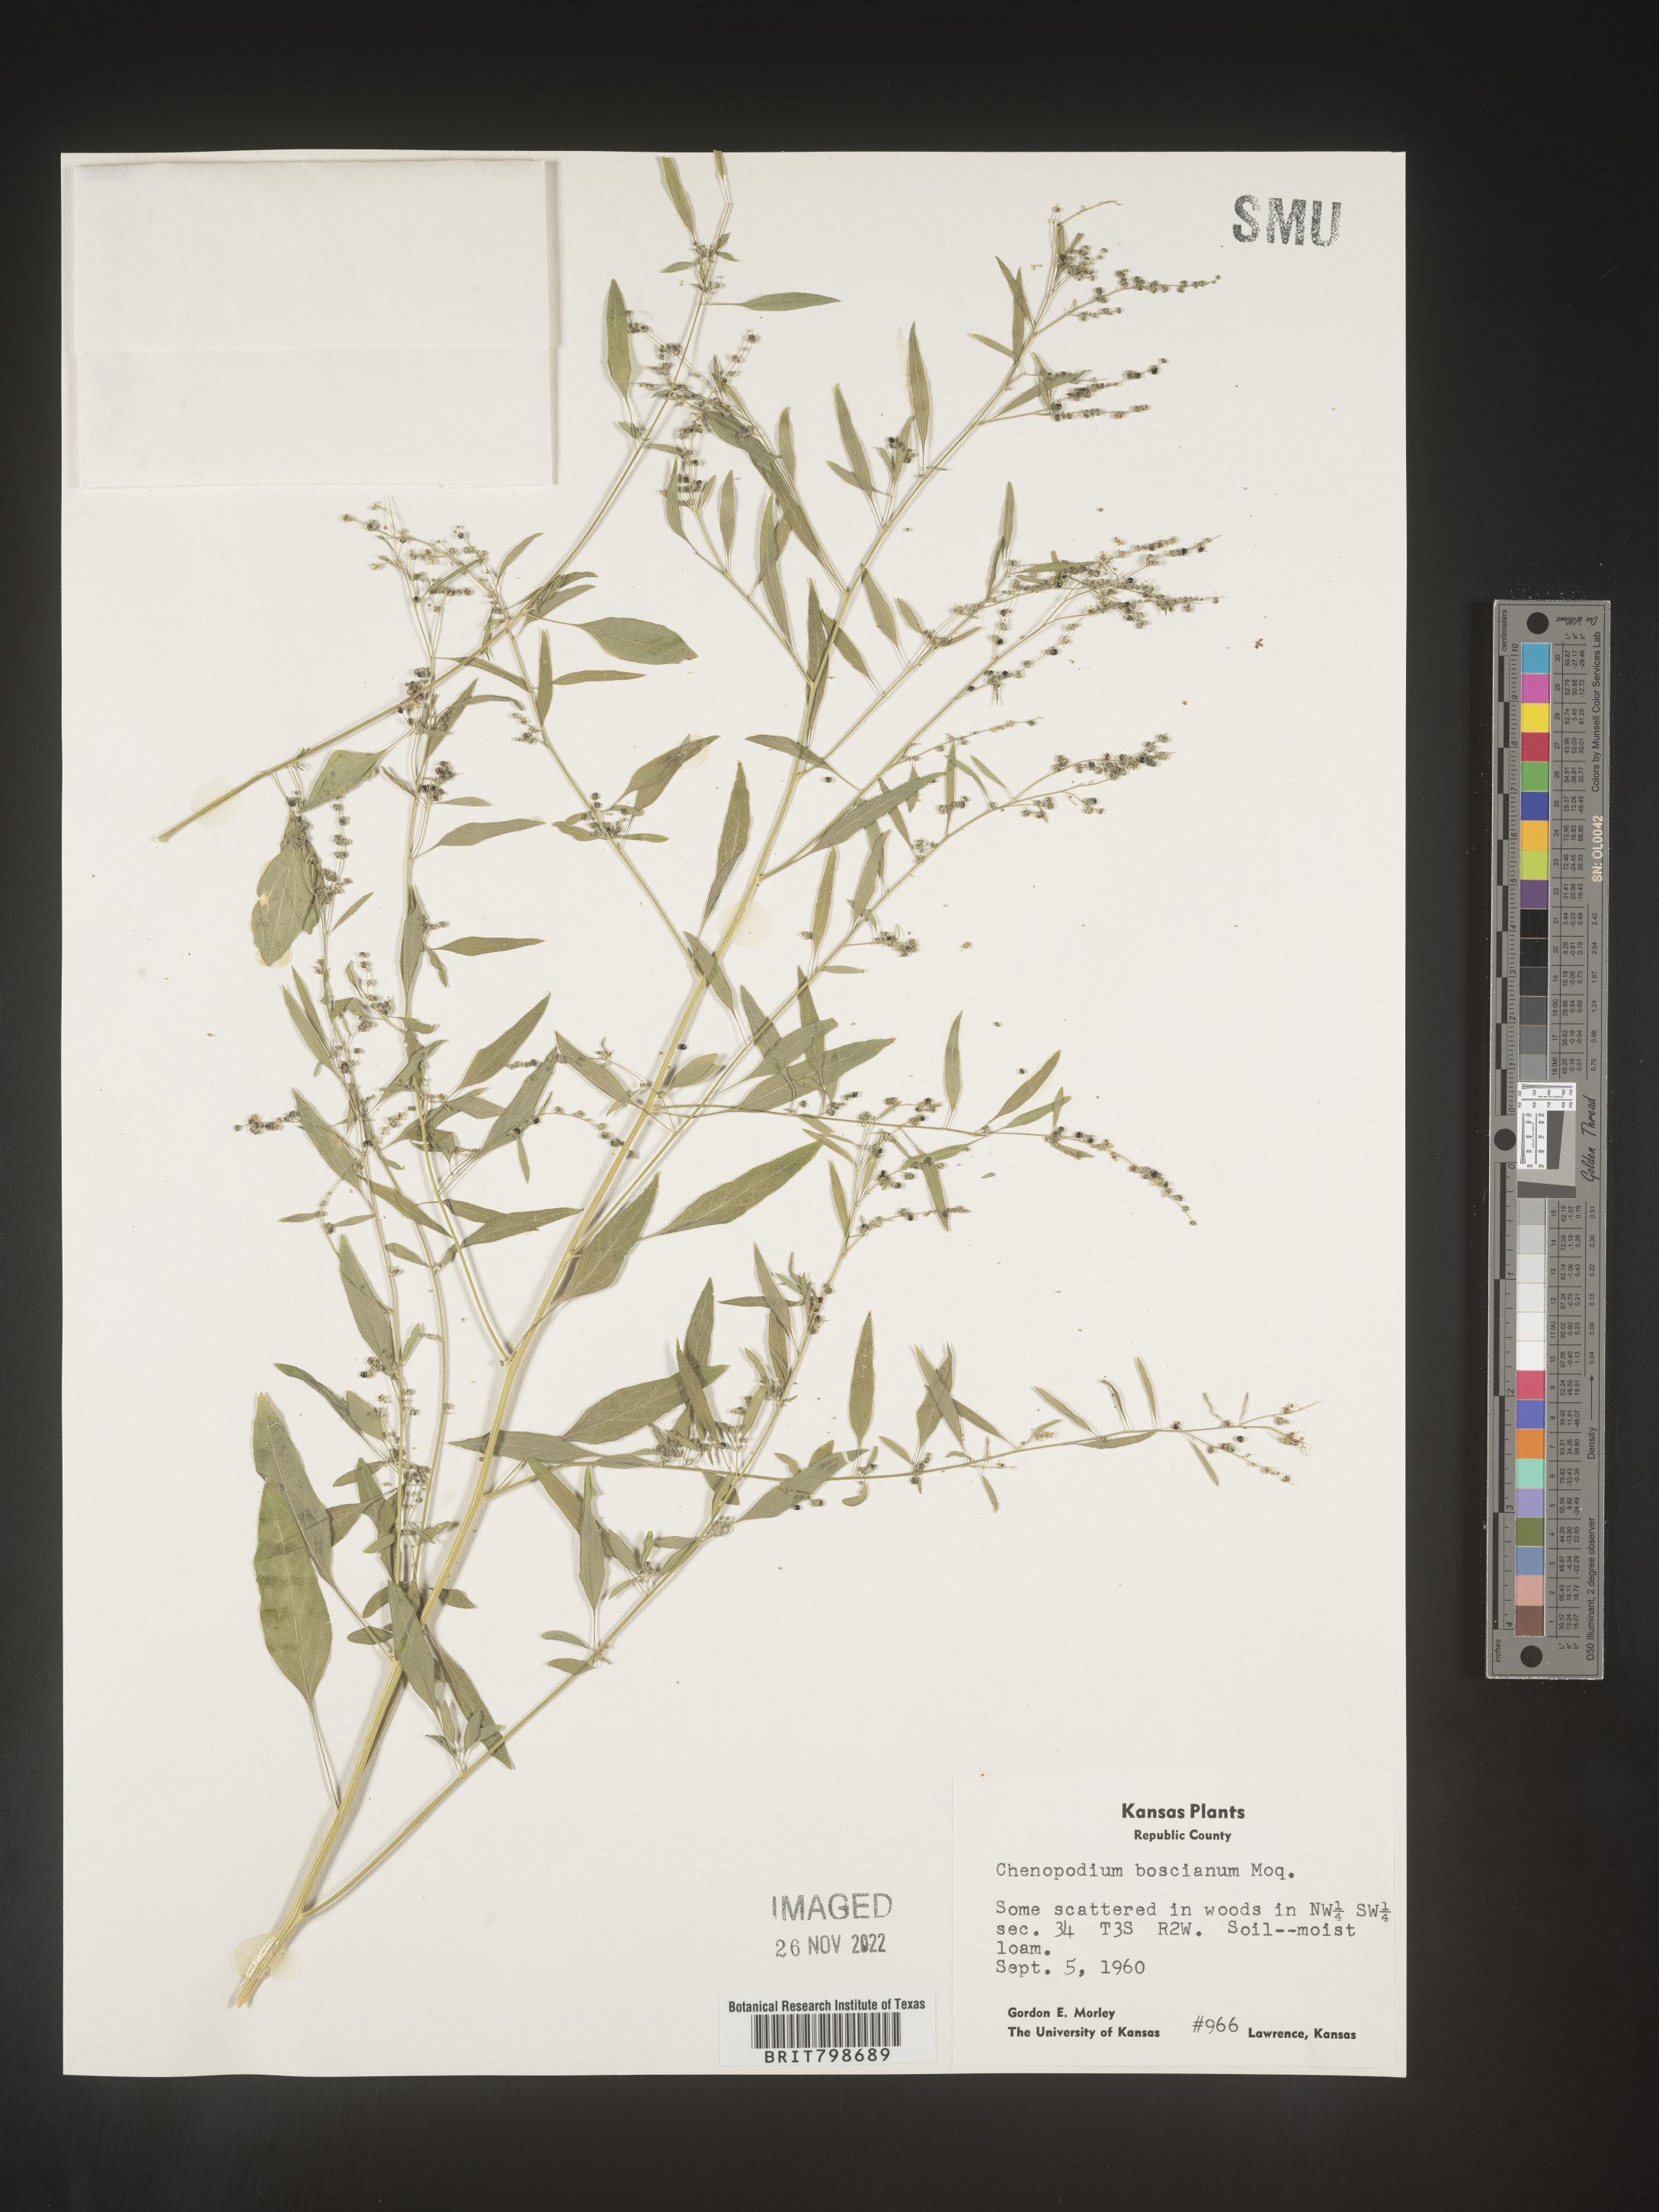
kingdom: Plantae
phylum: Tracheophyta
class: Magnoliopsida
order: Caryophyllales
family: Amaranthaceae
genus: Chenopodium
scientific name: Chenopodium berlandieri
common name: Pit-seed goosefoot
